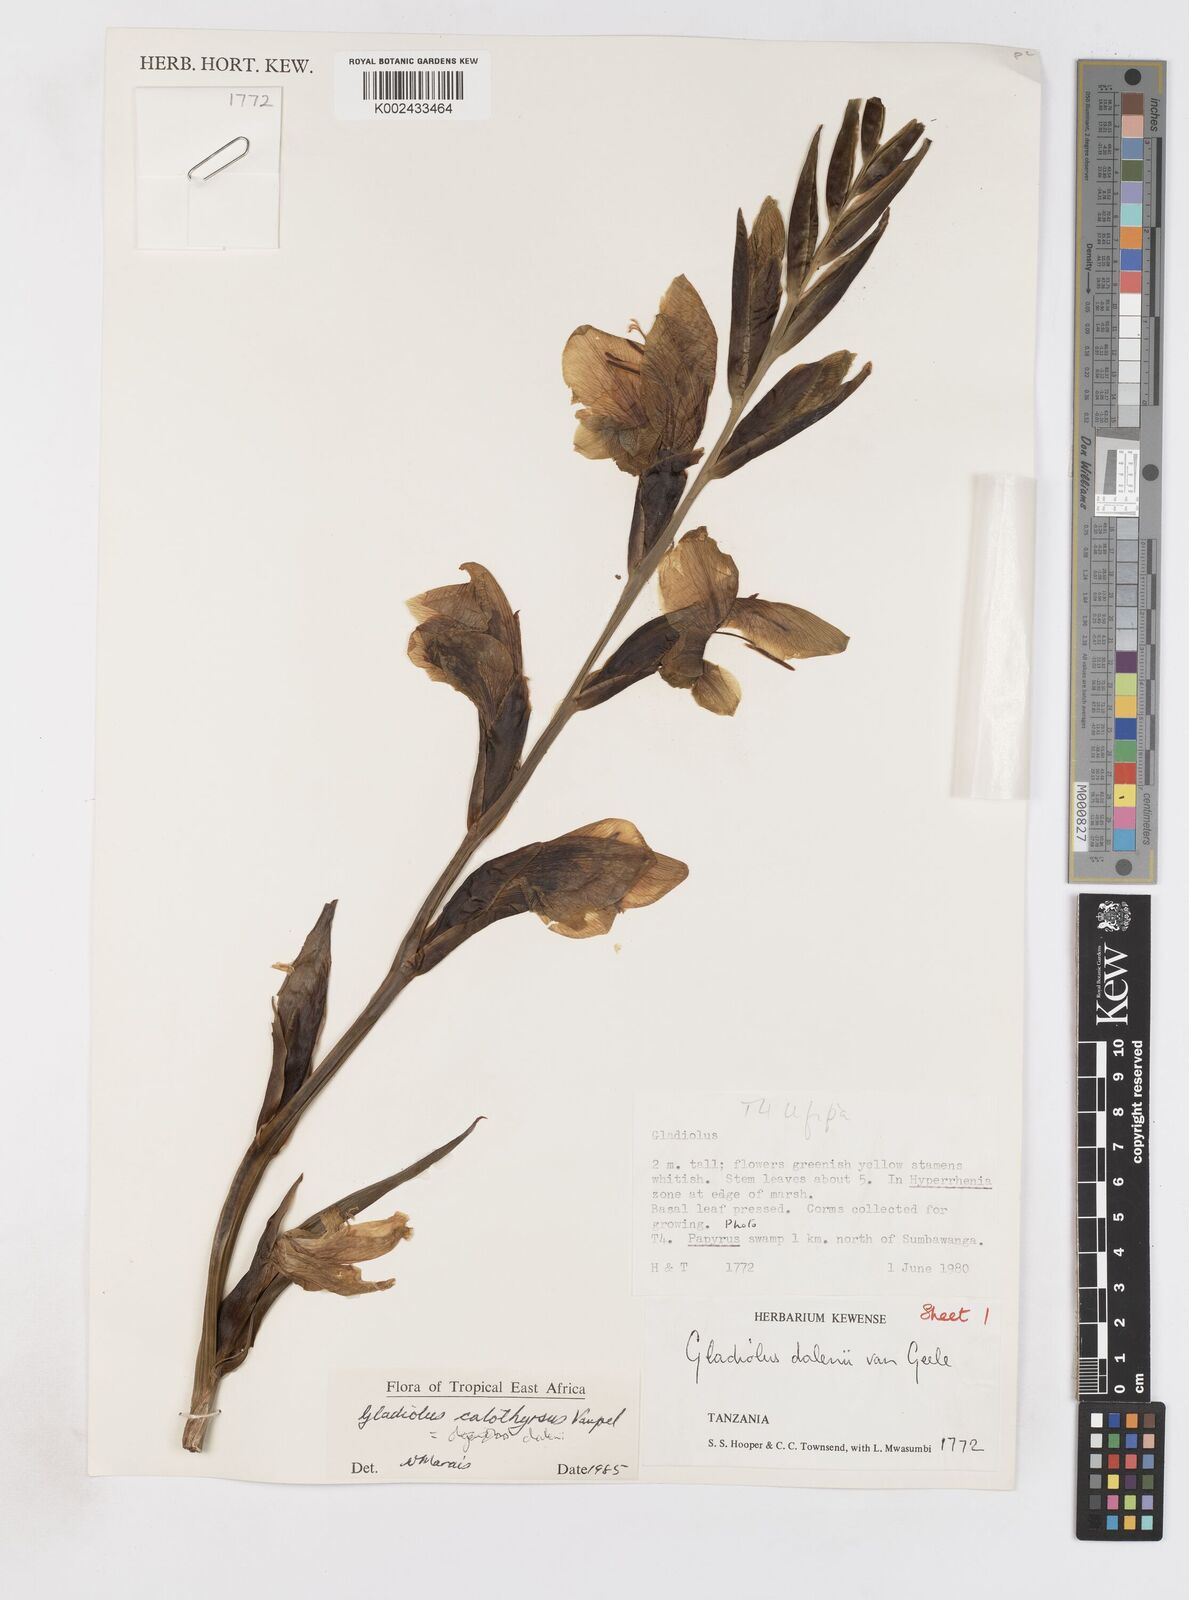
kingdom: Plantae
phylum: Tracheophyta
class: Liliopsida
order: Asparagales
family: Iridaceae
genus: Gladiolus
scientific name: Gladiolus dalenii
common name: Cornflag
